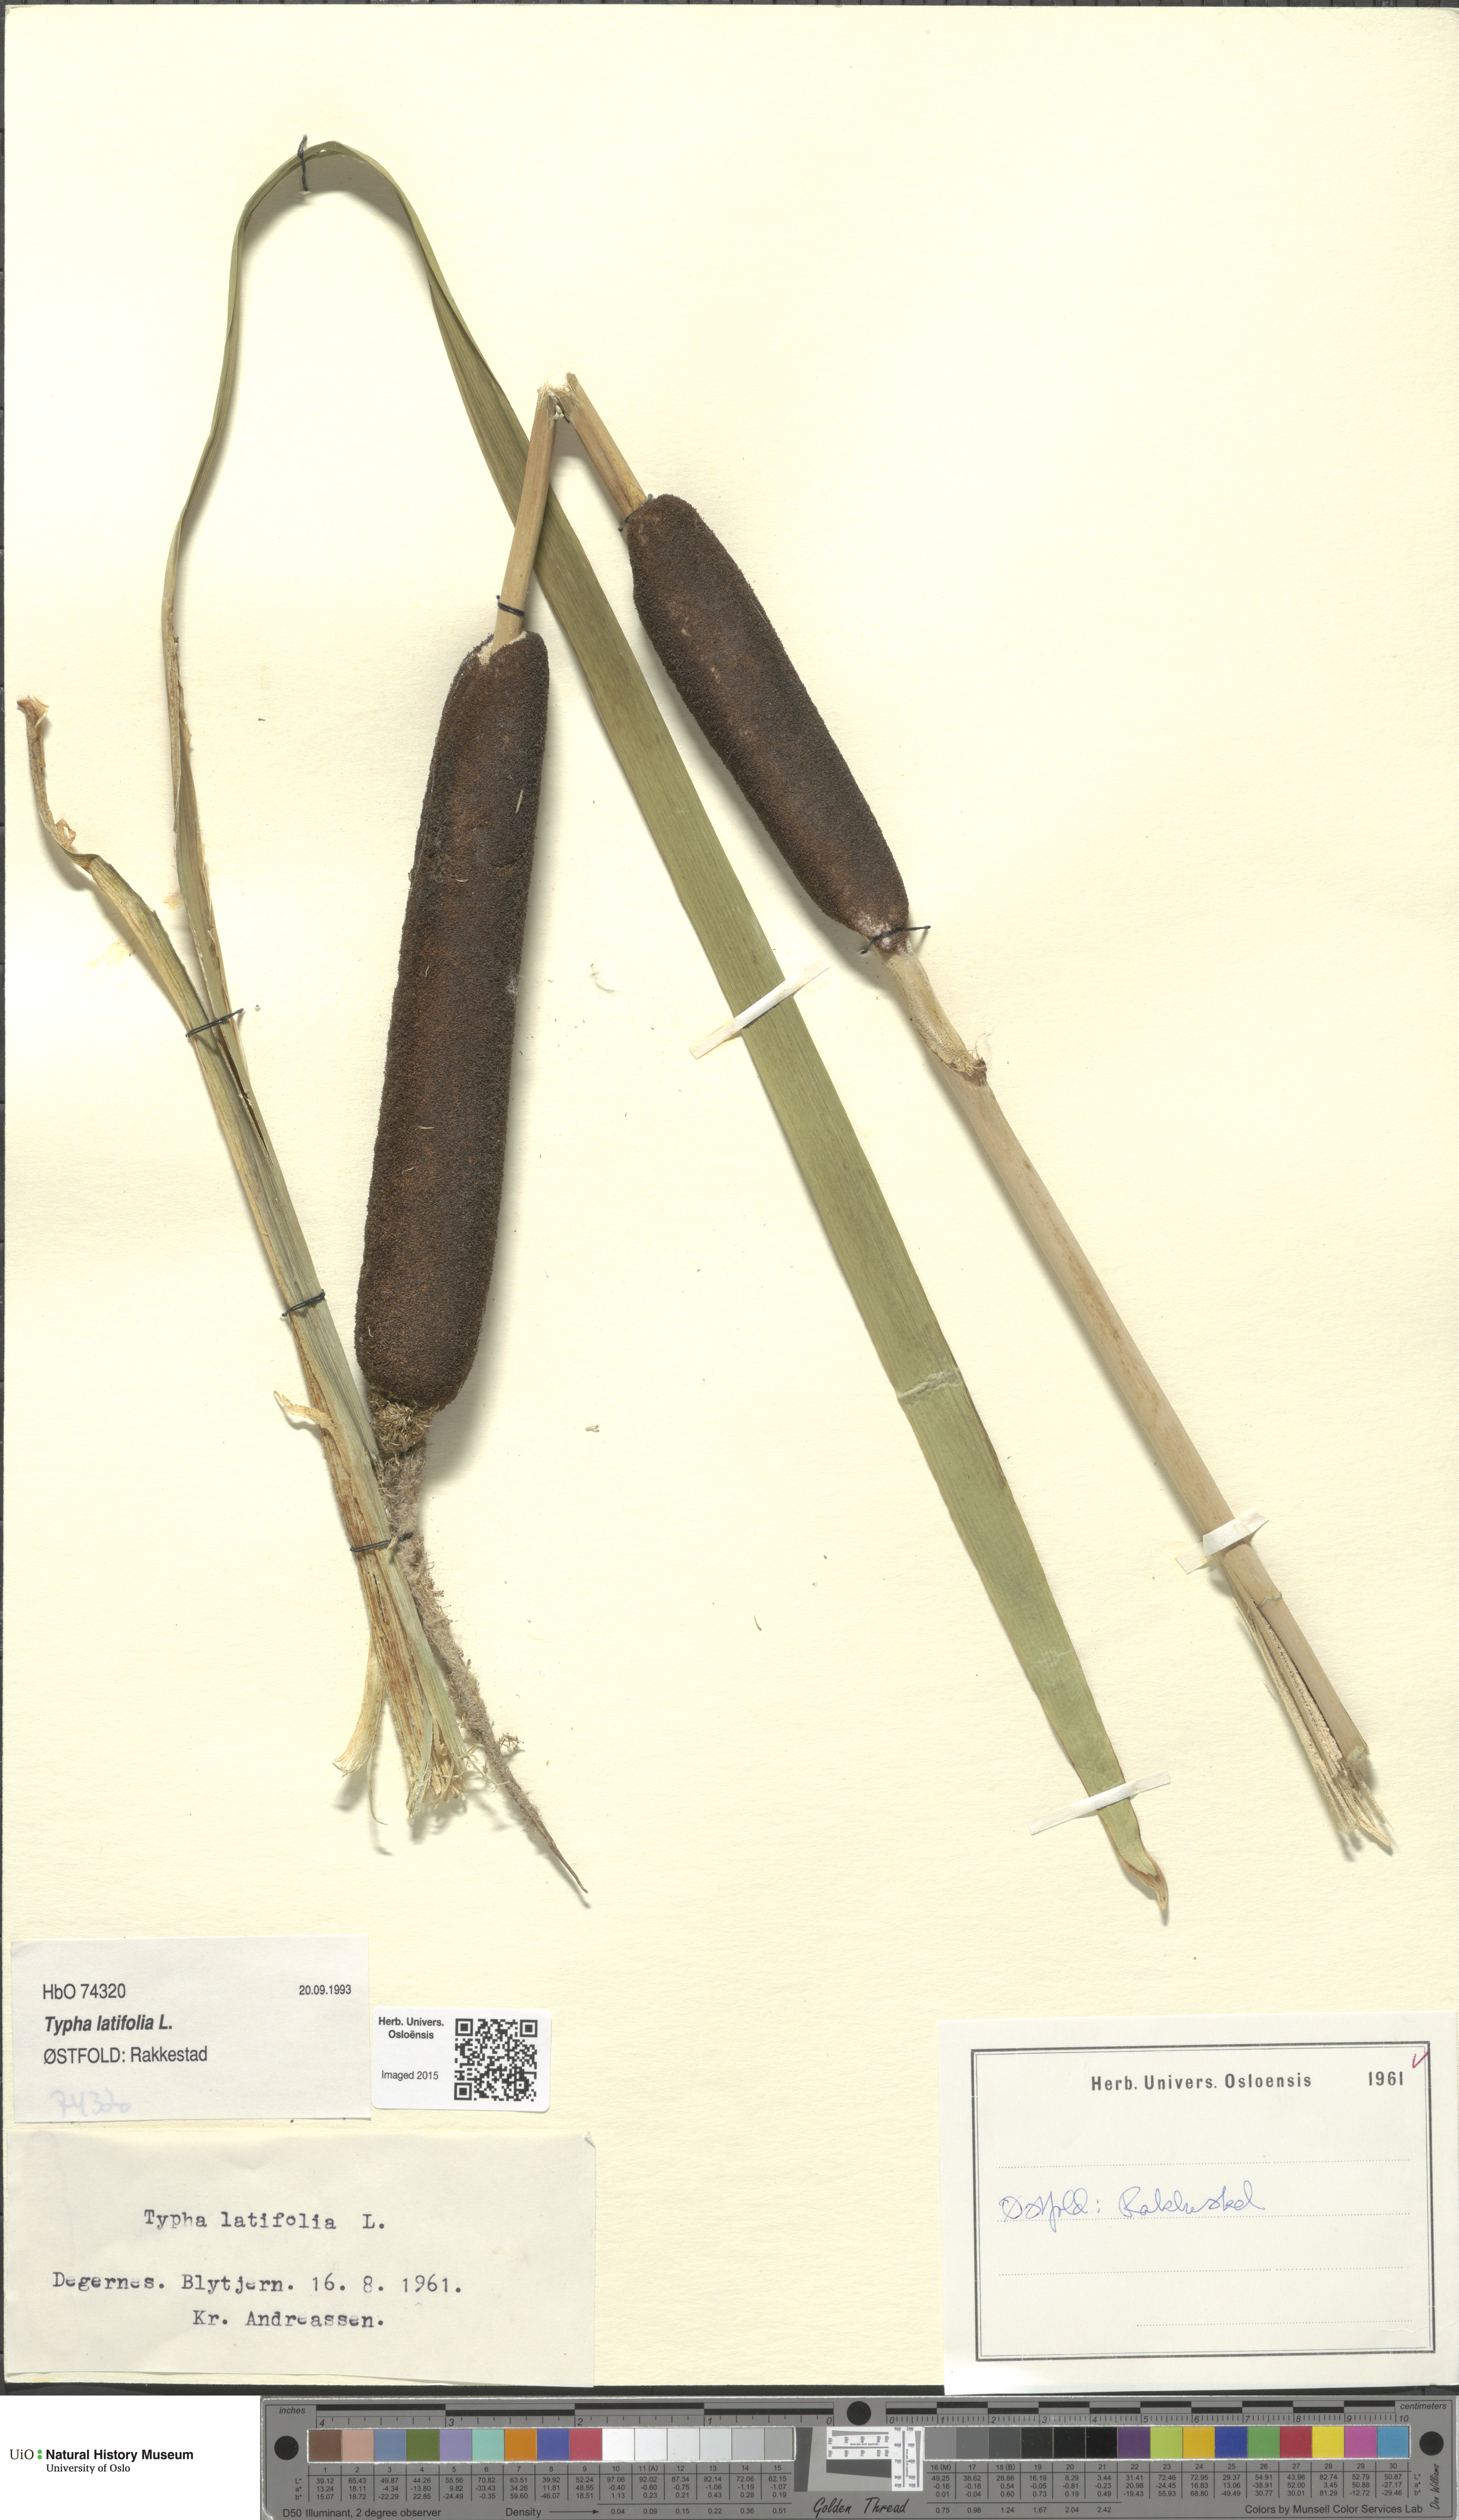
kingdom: Plantae
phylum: Tracheophyta
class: Liliopsida
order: Poales
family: Typhaceae
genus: Typha
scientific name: Typha latifolia
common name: Broadleaf cattail
